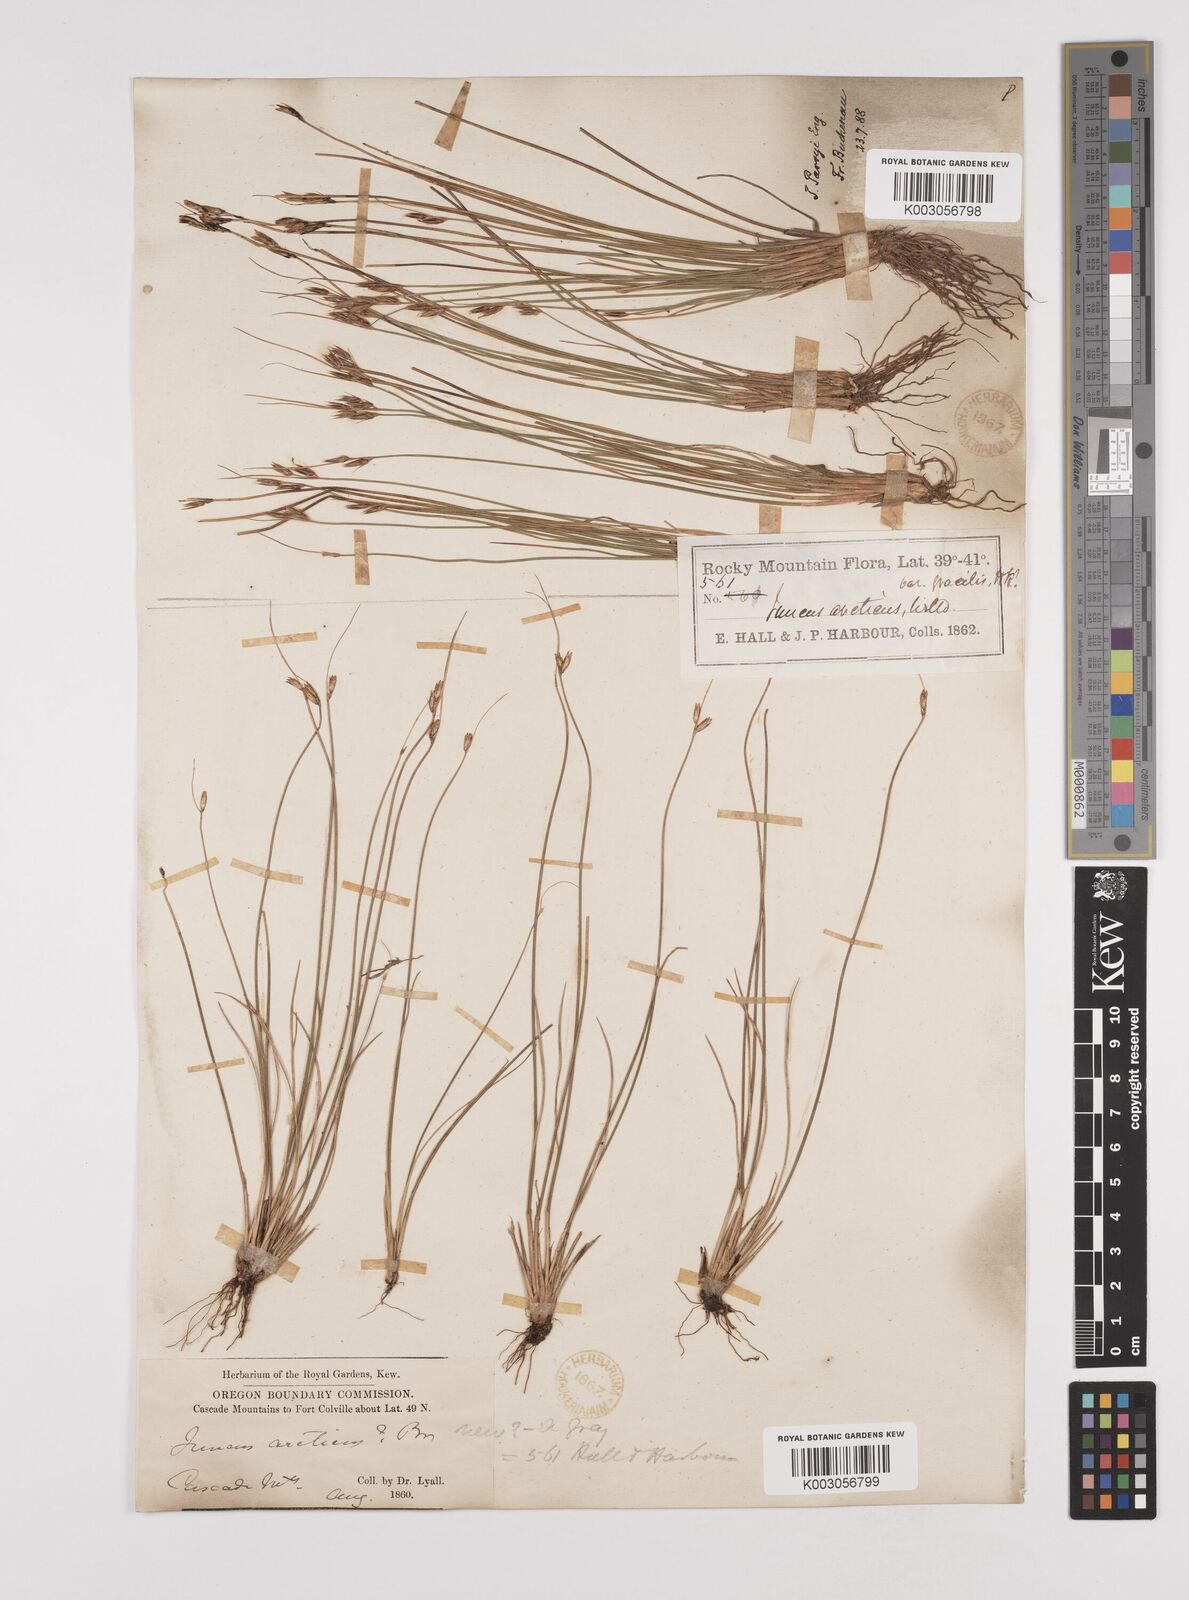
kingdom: Plantae
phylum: Tracheophyta
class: Liliopsida
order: Poales
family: Juncaceae
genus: Juncus
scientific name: Juncus parryi
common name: Parry's rush
